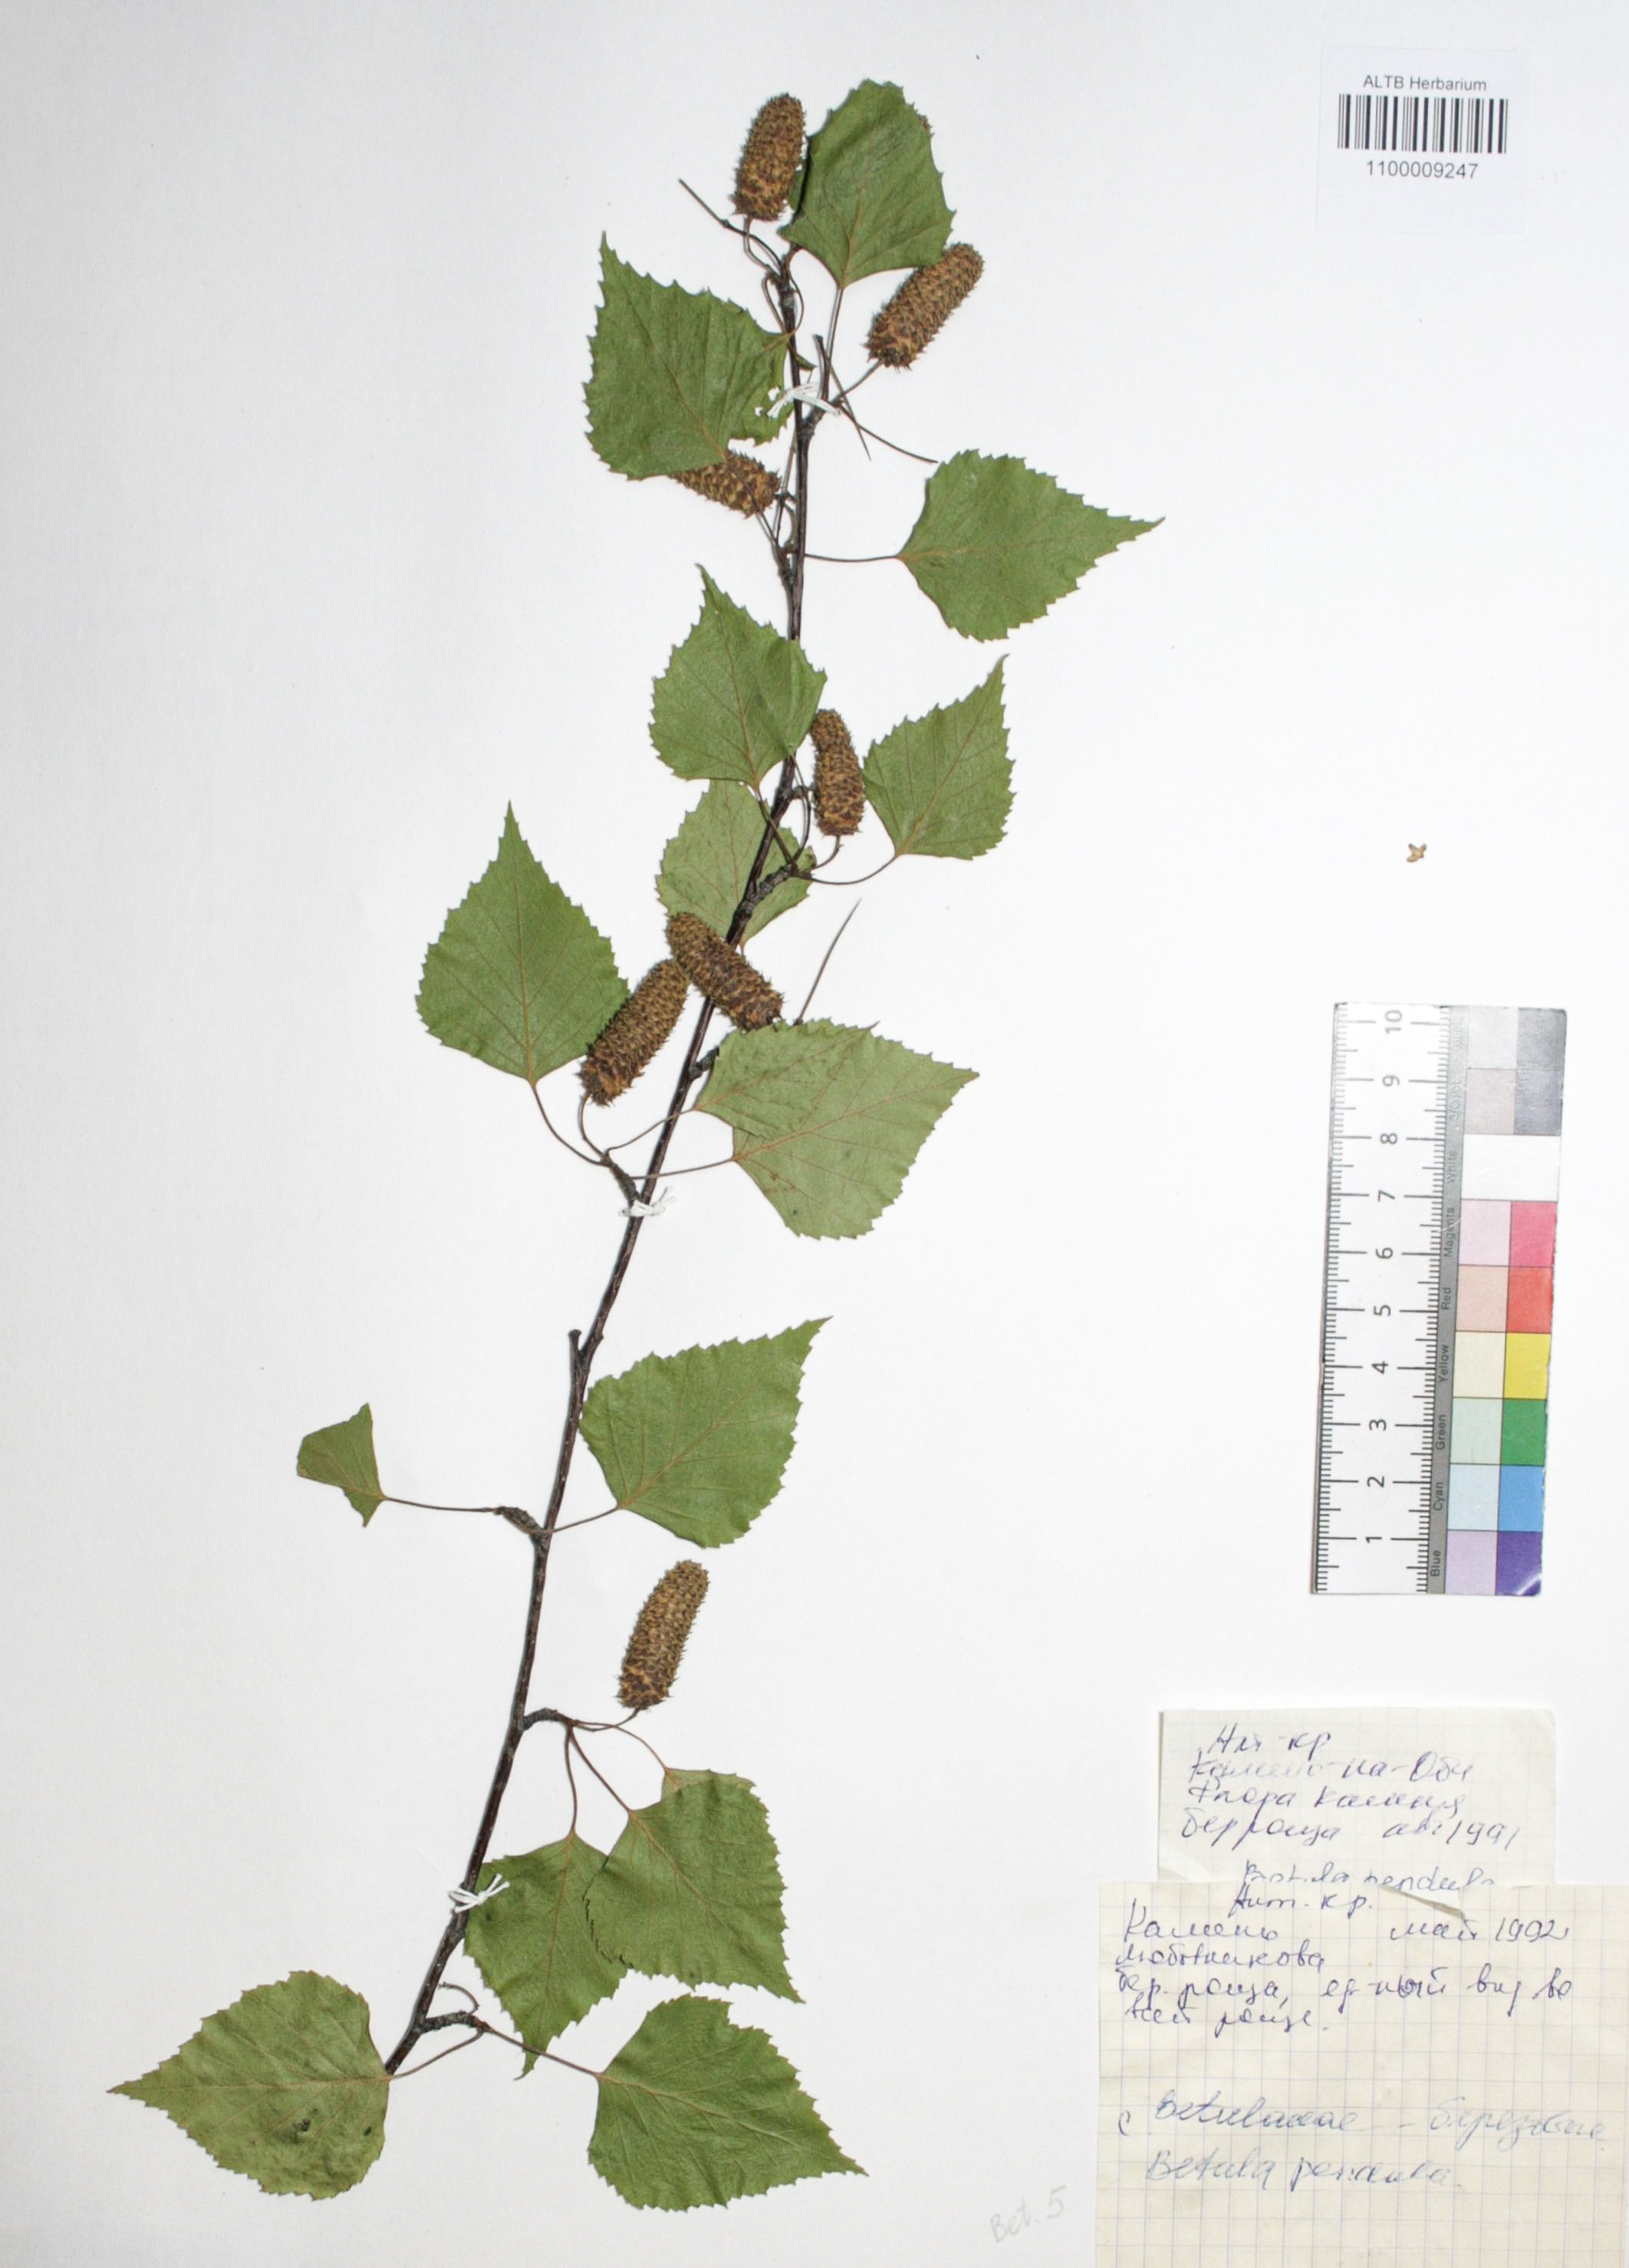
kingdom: Plantae
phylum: Tracheophyta
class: Magnoliopsida
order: Fagales
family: Betulaceae
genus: Betula
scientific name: Betula pendula
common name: Silver birch
